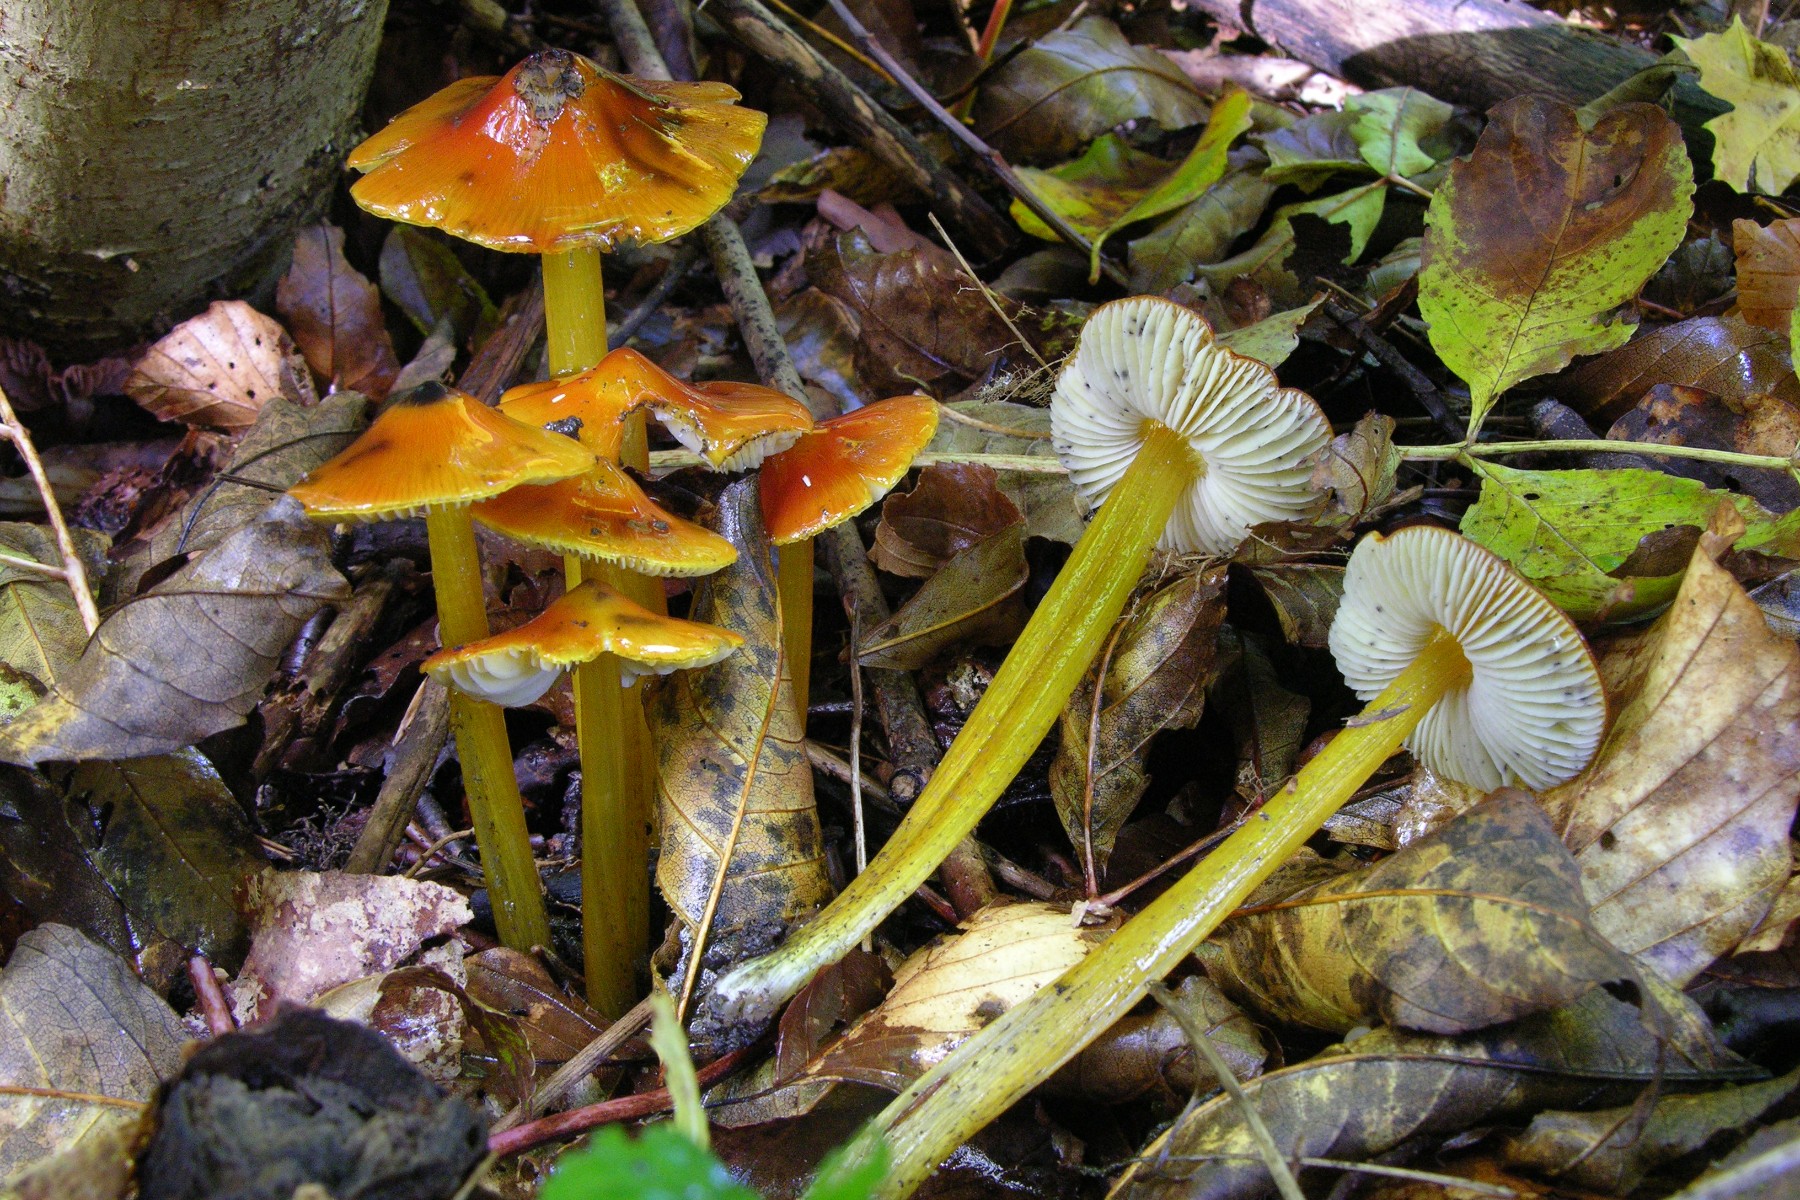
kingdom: Fungi
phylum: Basidiomycota
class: Agaricomycetes
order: Agaricales
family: Hygrophoraceae
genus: Hygrocybe
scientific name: Hygrocybe conica
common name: kegle-vokshat
